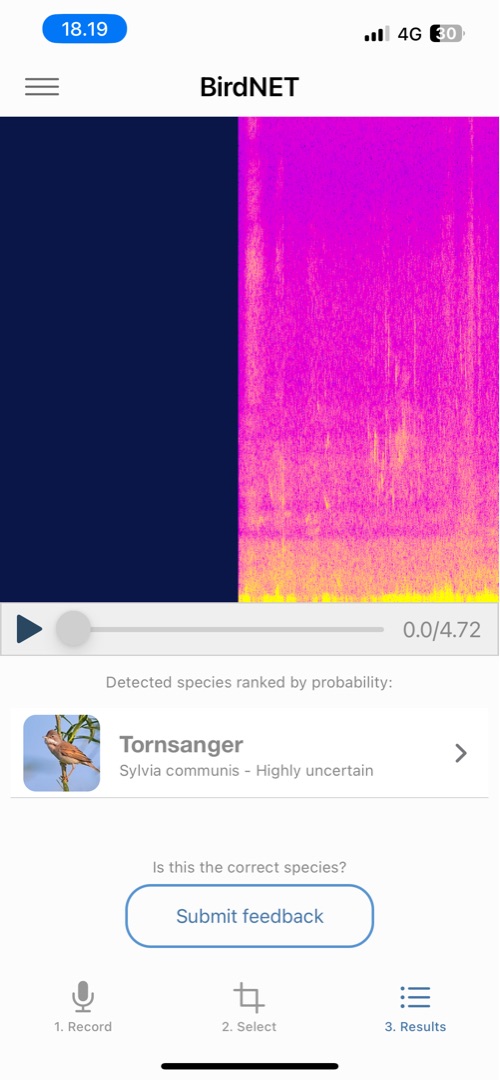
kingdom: Animalia
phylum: Chordata
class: Aves
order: Passeriformes
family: Sylviidae
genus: Sylvia
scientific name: Sylvia communis
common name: Tornsanger
